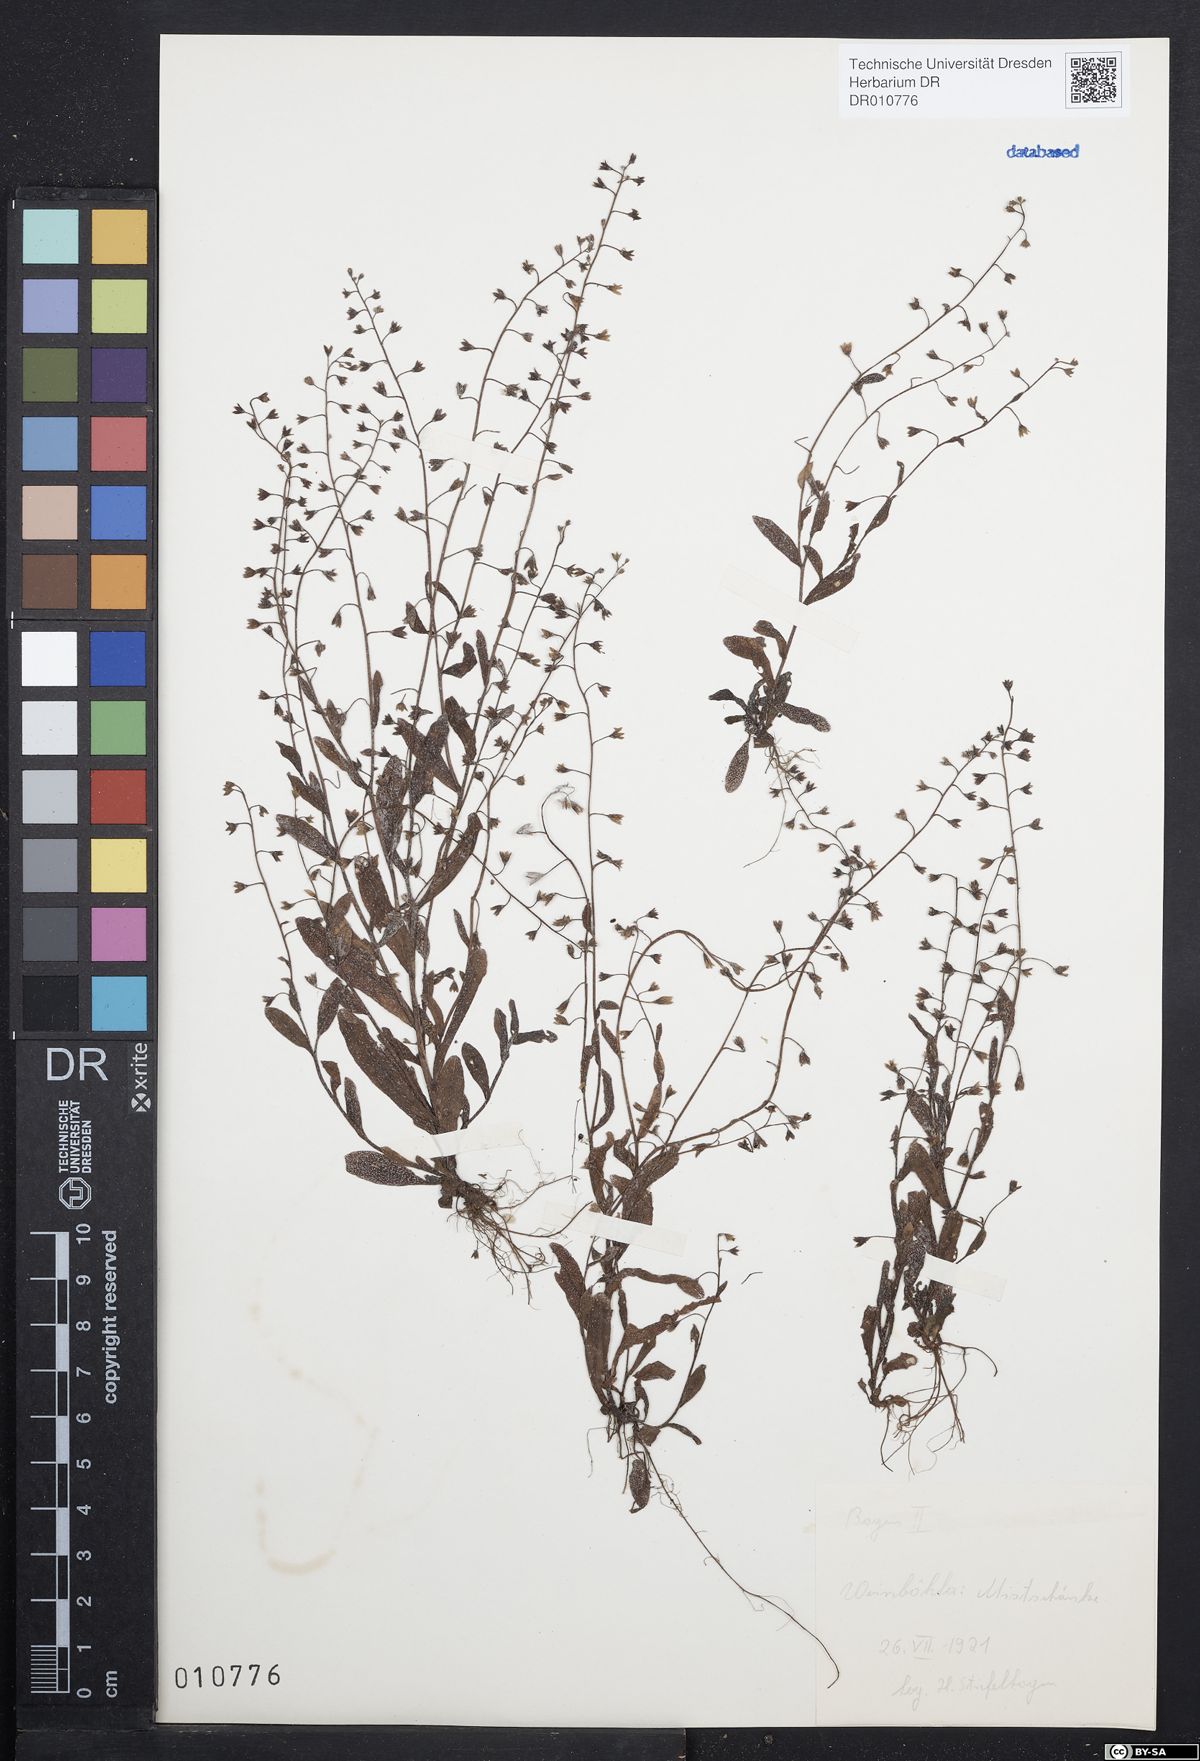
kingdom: Plantae
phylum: Tracheophyta
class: Magnoliopsida
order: Boraginales
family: Boraginaceae
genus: Myosotis
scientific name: Myosotis laxa
